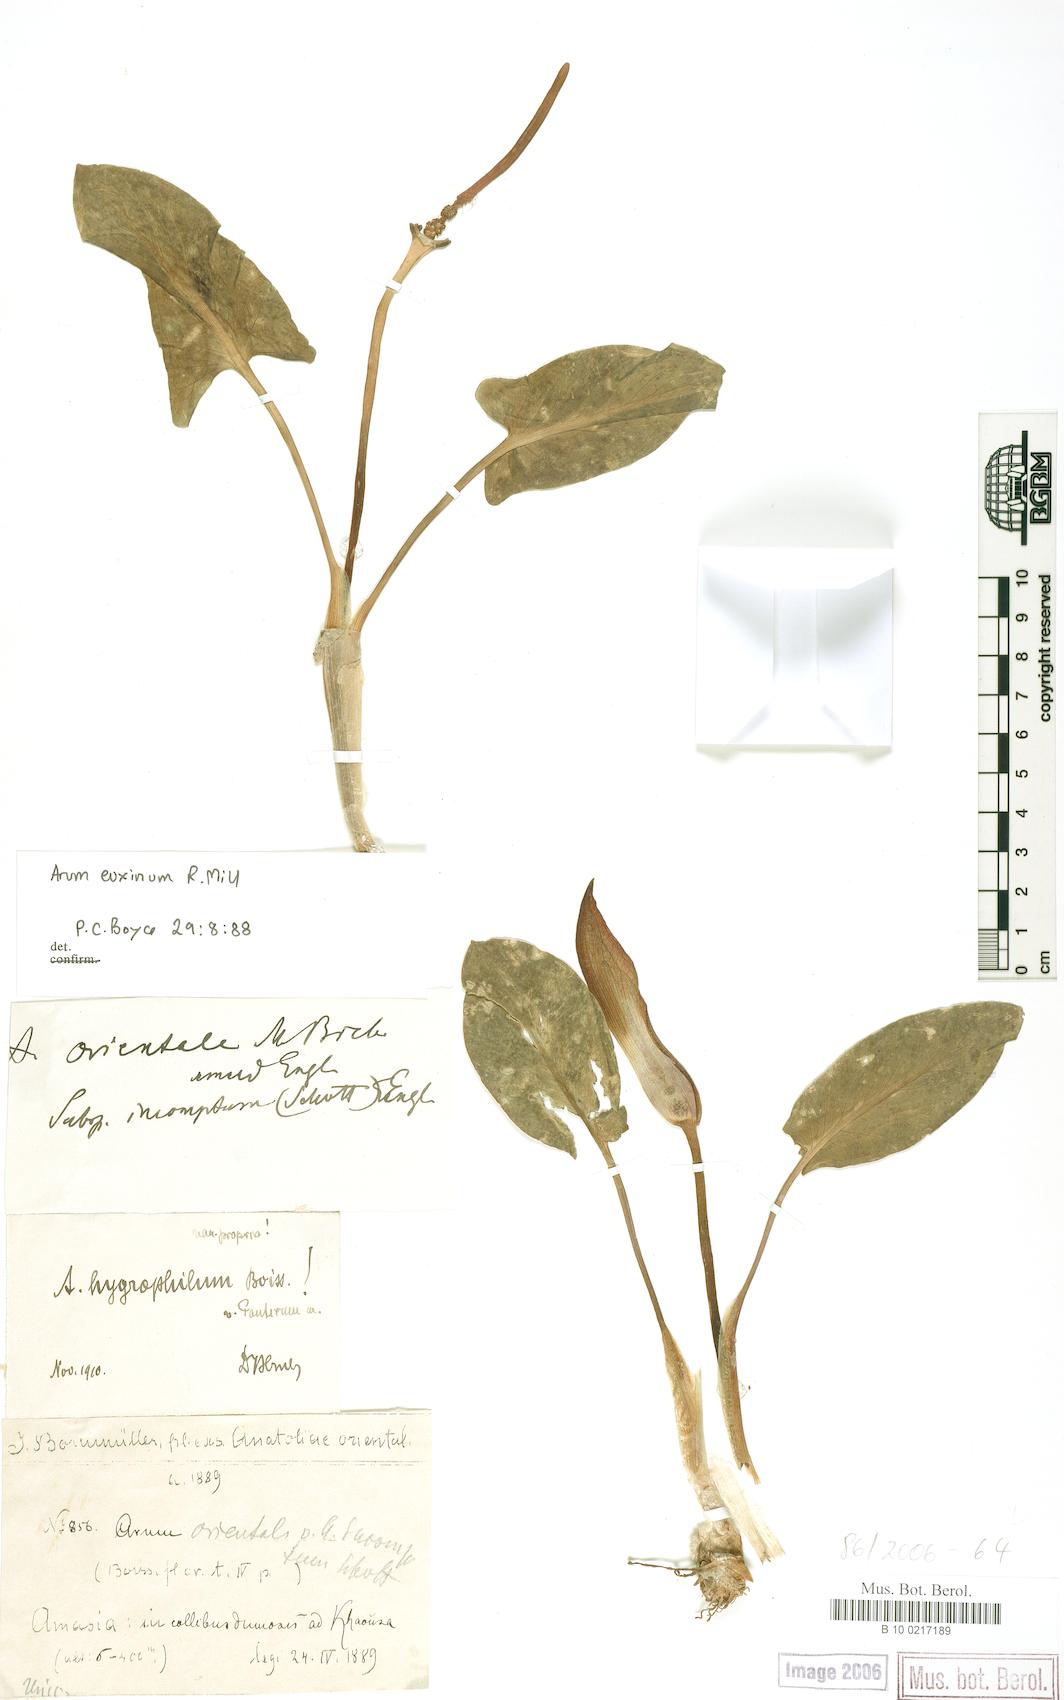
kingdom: Plantae
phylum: Tracheophyta
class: Liliopsida
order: Alismatales
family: Araceae
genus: Arum
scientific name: Arum euxinum
